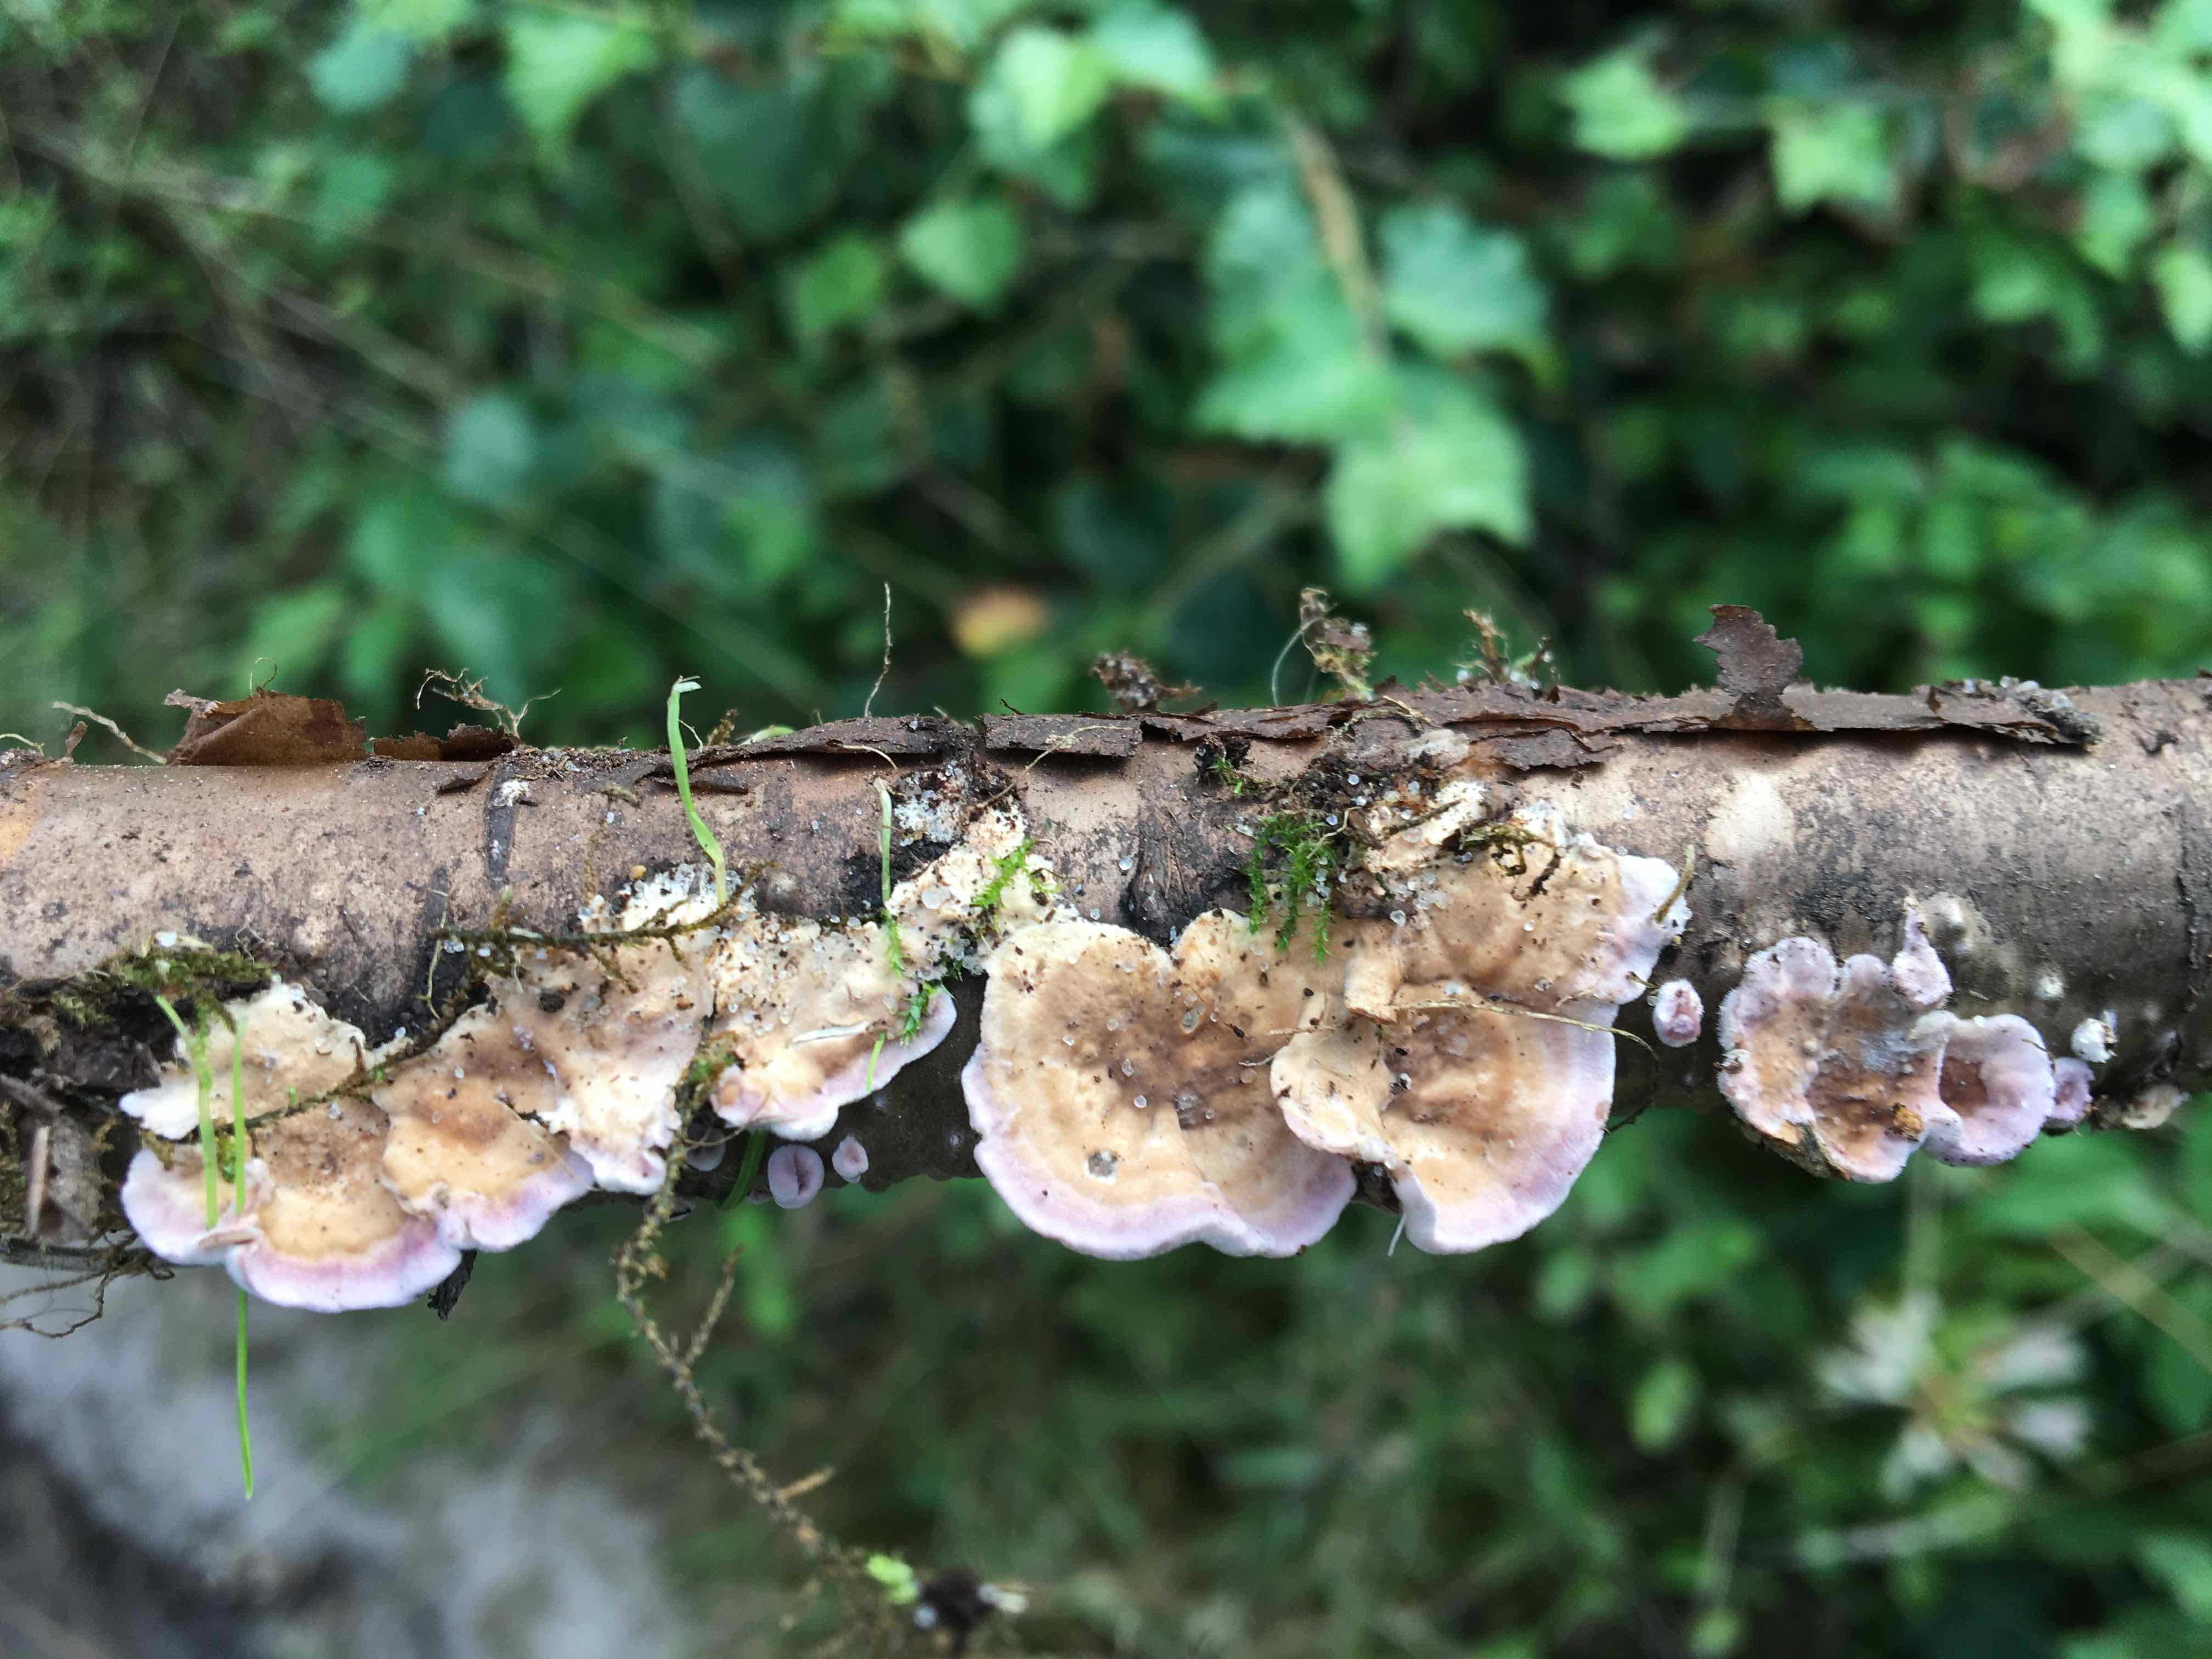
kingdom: Fungi
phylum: Basidiomycota
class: Agaricomycetes
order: Agaricales
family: Cyphellaceae
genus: Chondrostereum
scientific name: Chondrostereum
